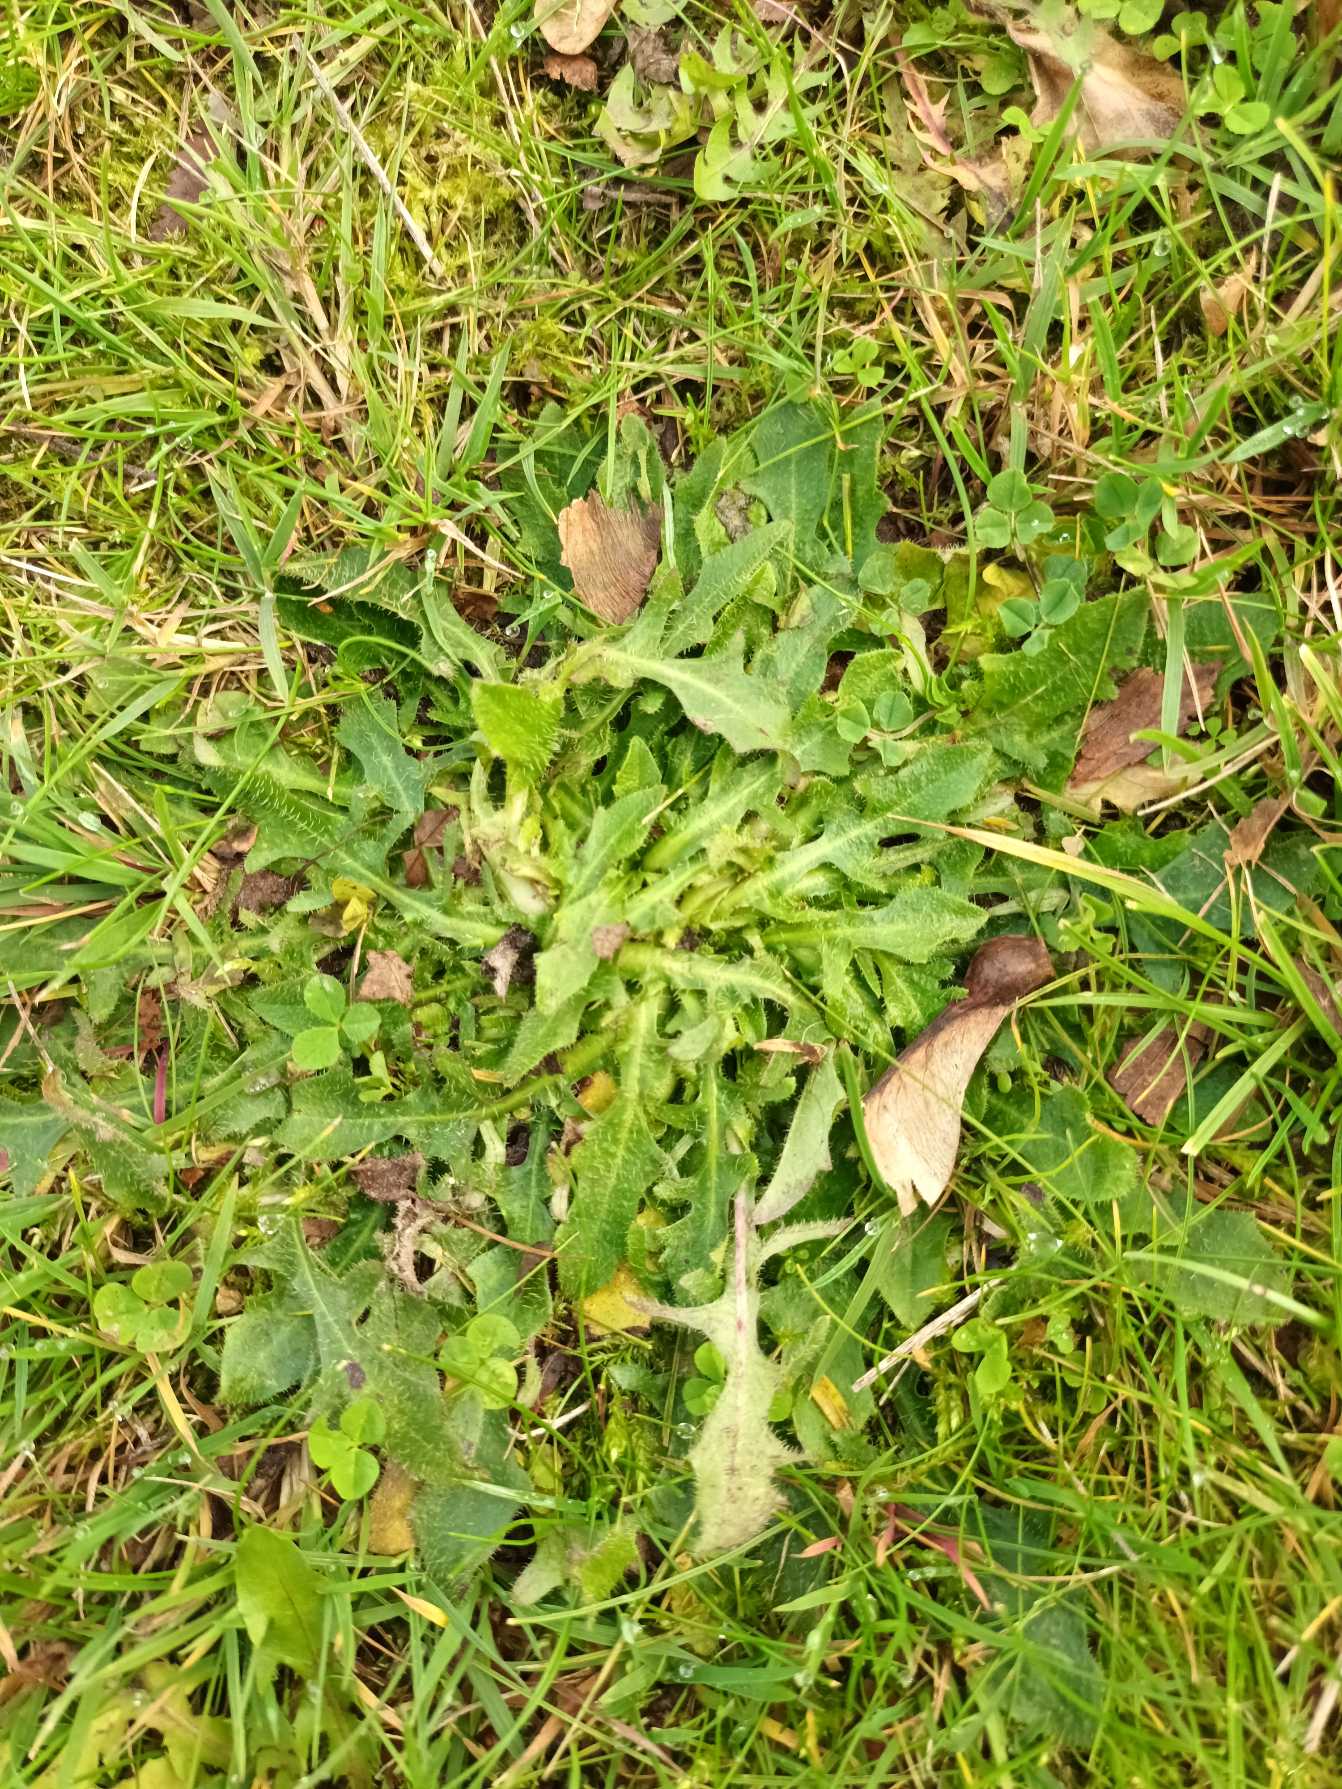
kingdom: Plantae
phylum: Tracheophyta
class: Magnoliopsida
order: Asterales
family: Asteraceae
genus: Hypochaeris
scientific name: Hypochaeris radicata
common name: Almindelig kongepen
